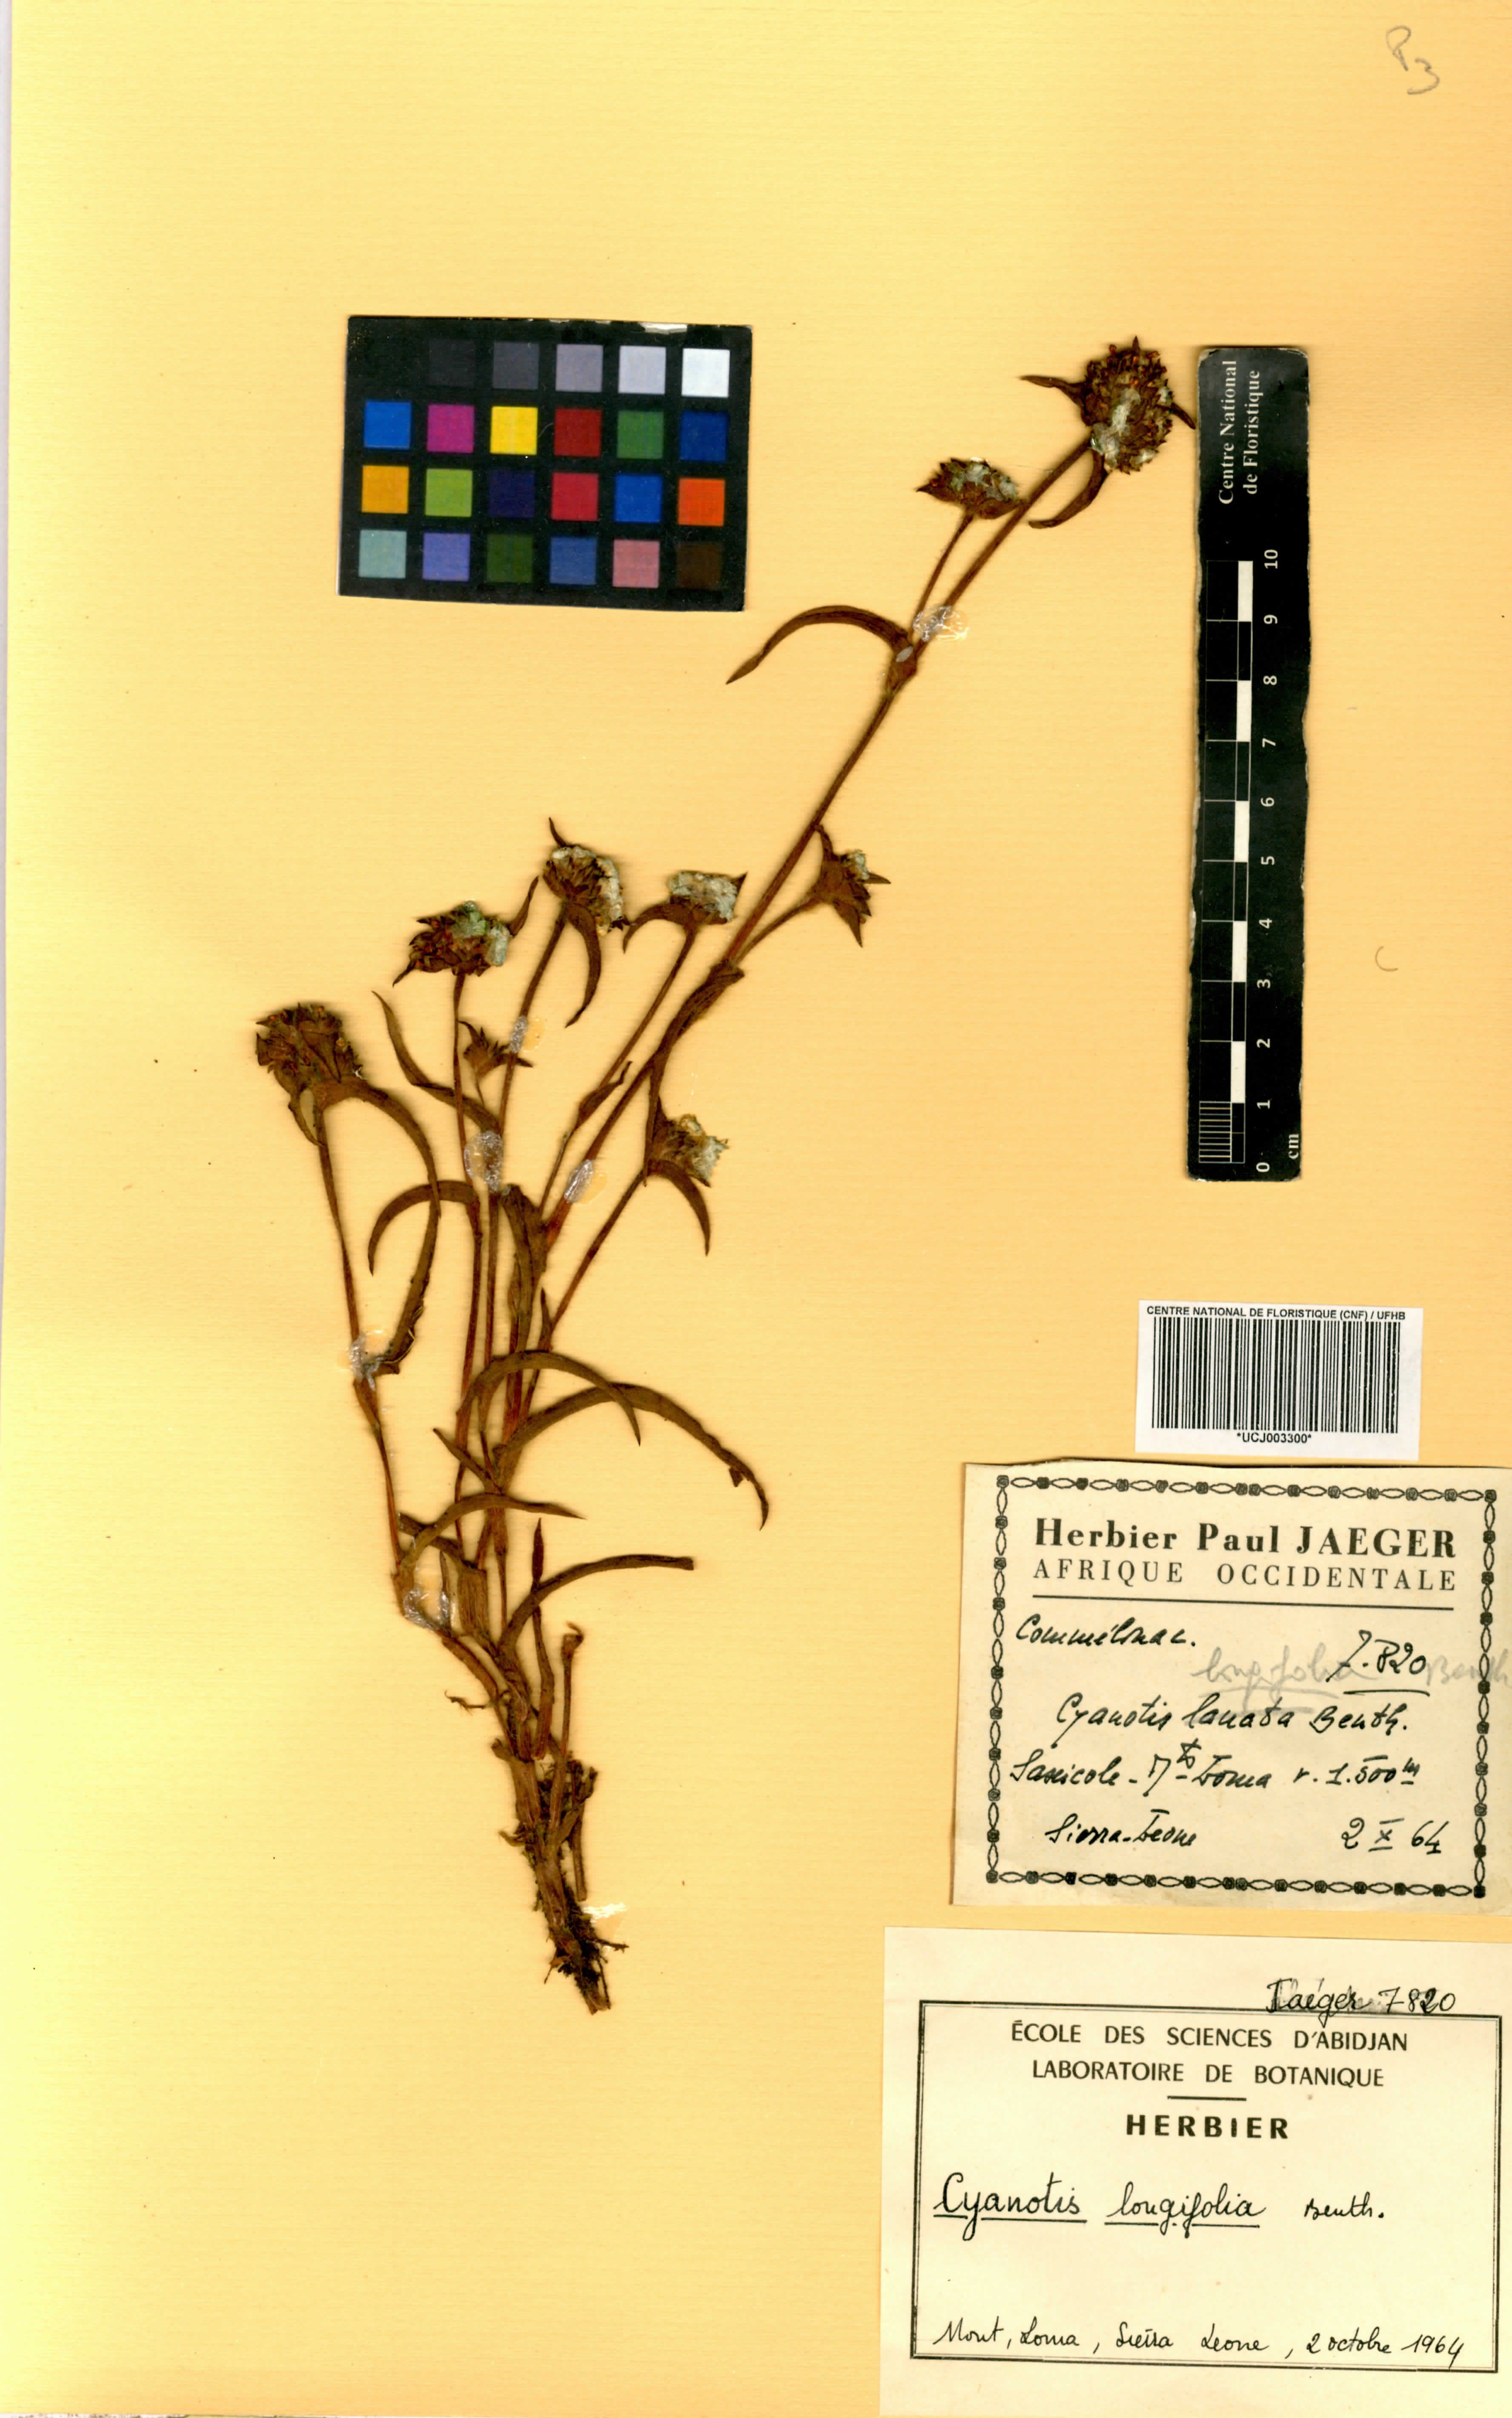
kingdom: Plantae
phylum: Tracheophyta
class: Liliopsida
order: Commelinales
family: Commelinaceae
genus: Cyanotis
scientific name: Cyanotis longifolia
